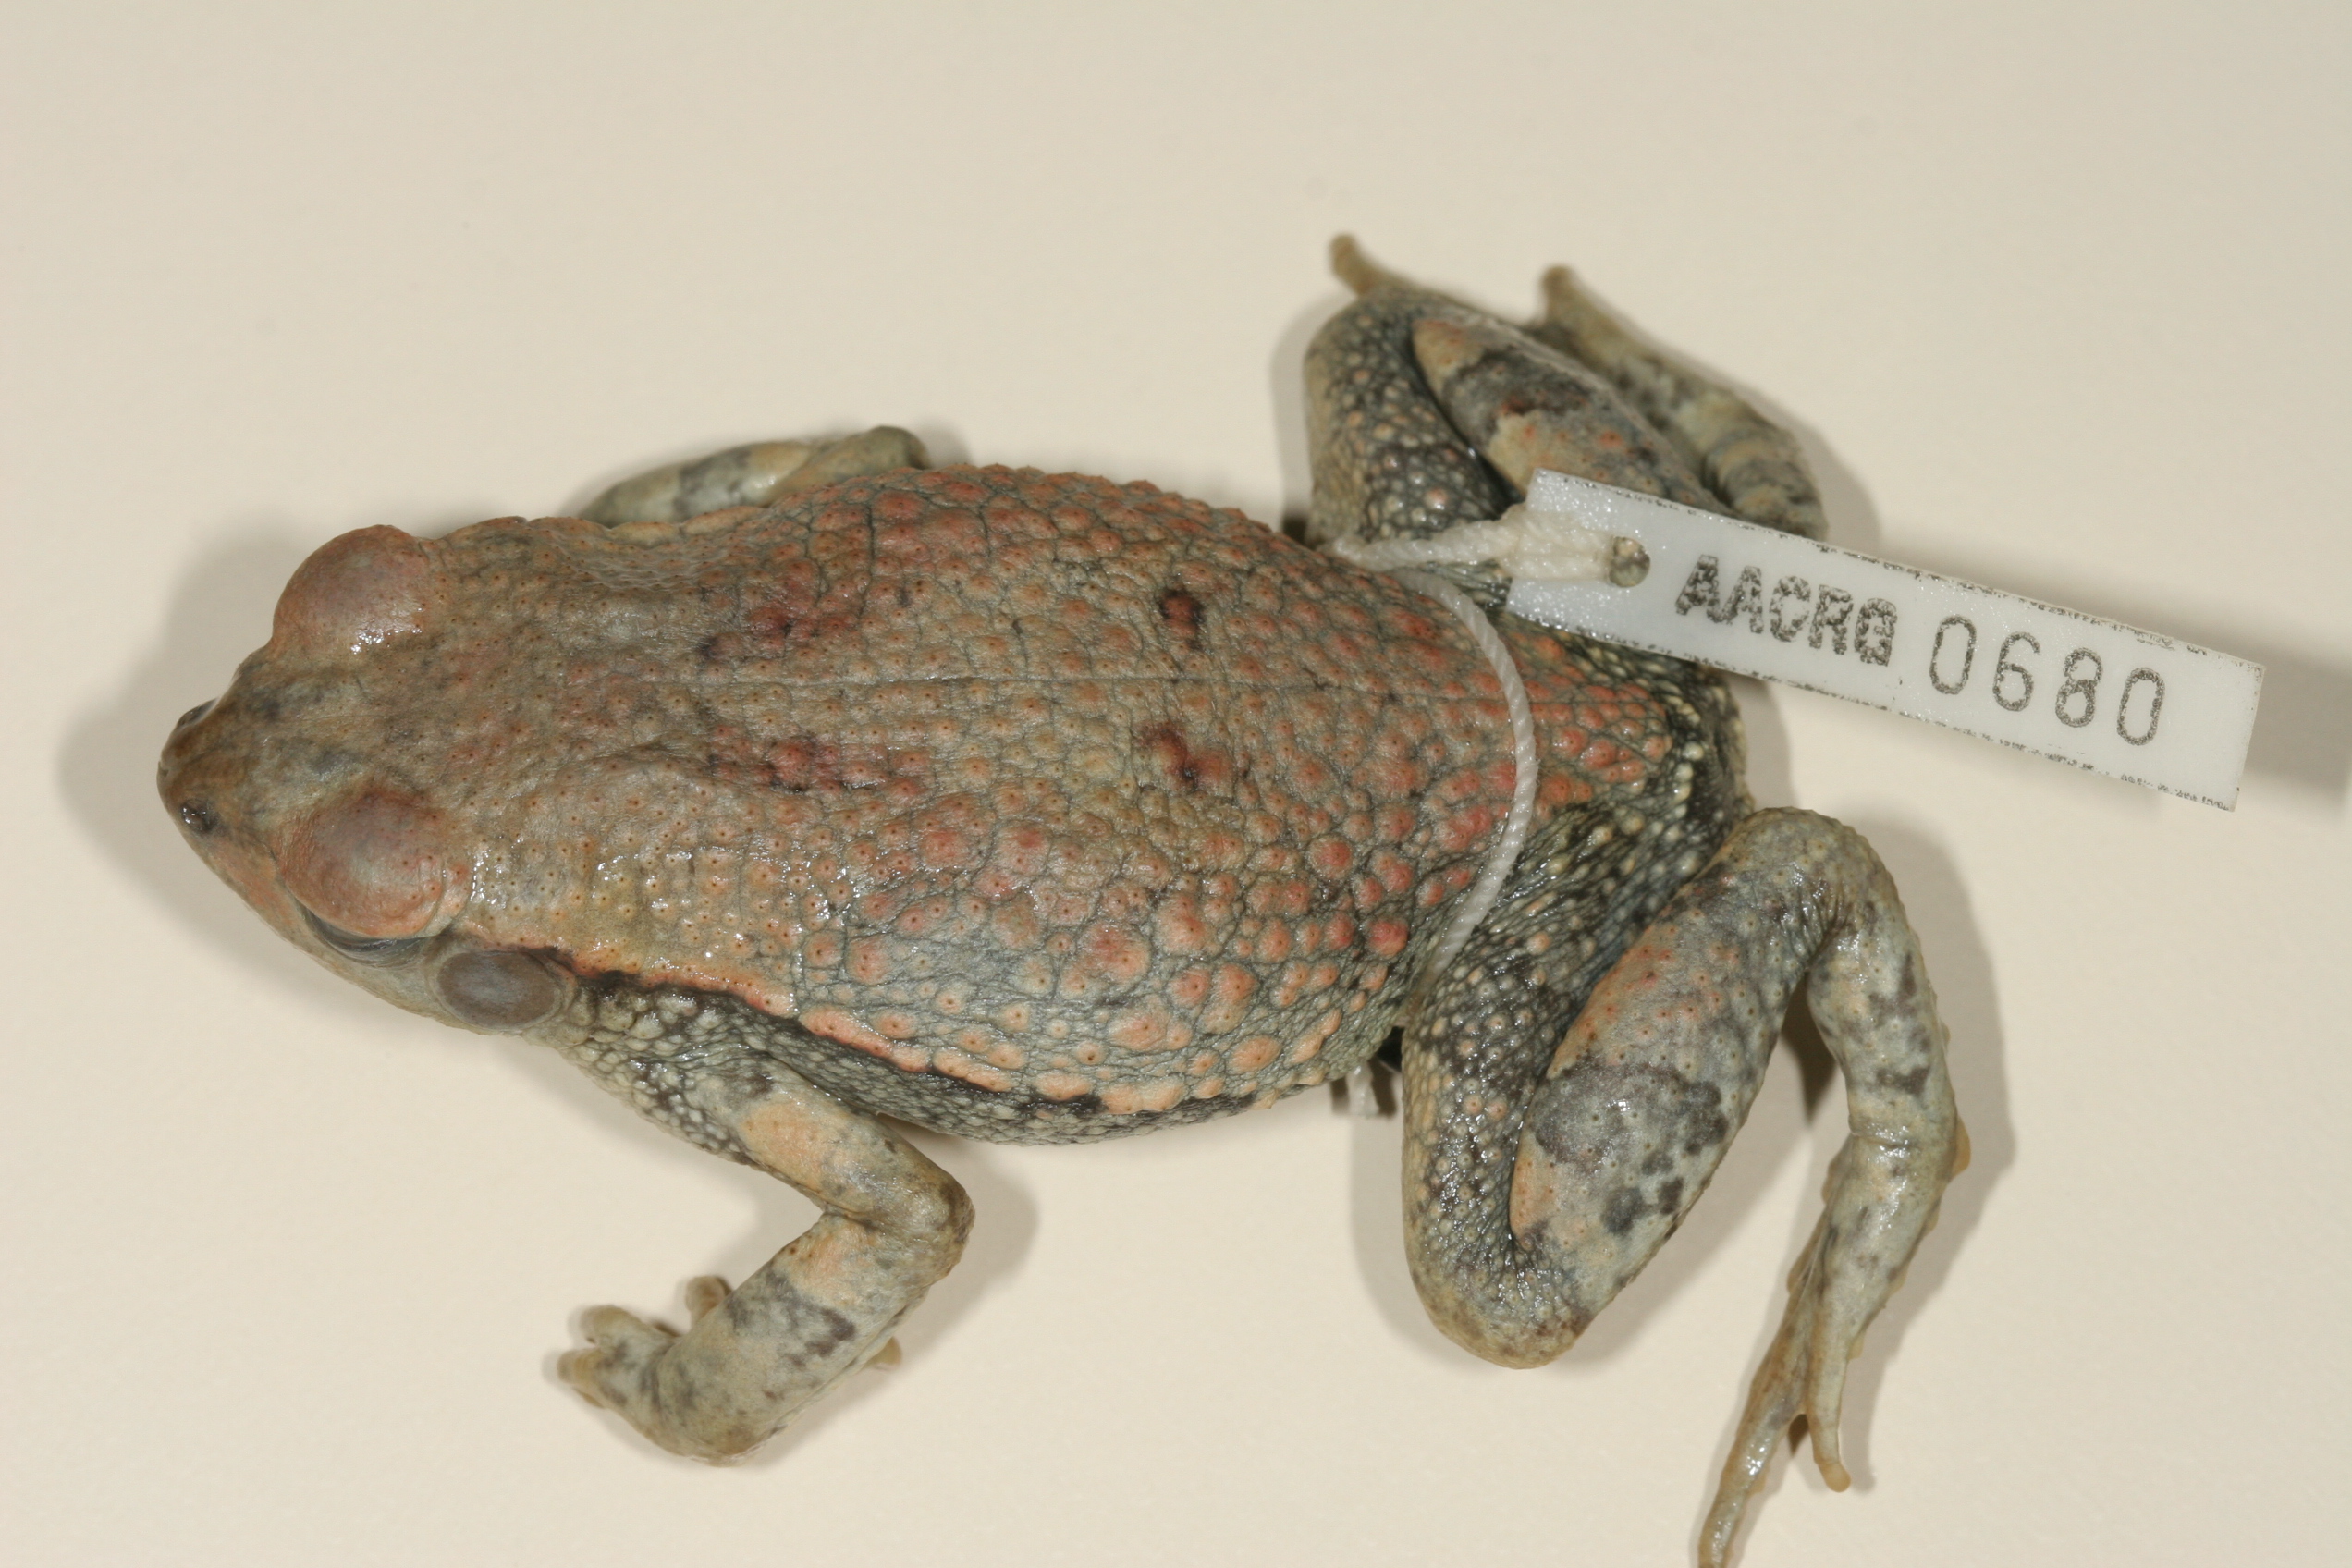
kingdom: Animalia
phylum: Chordata
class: Amphibia
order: Anura
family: Bufonidae
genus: Schismaderma
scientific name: Schismaderma carens
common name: African split-skin toad
